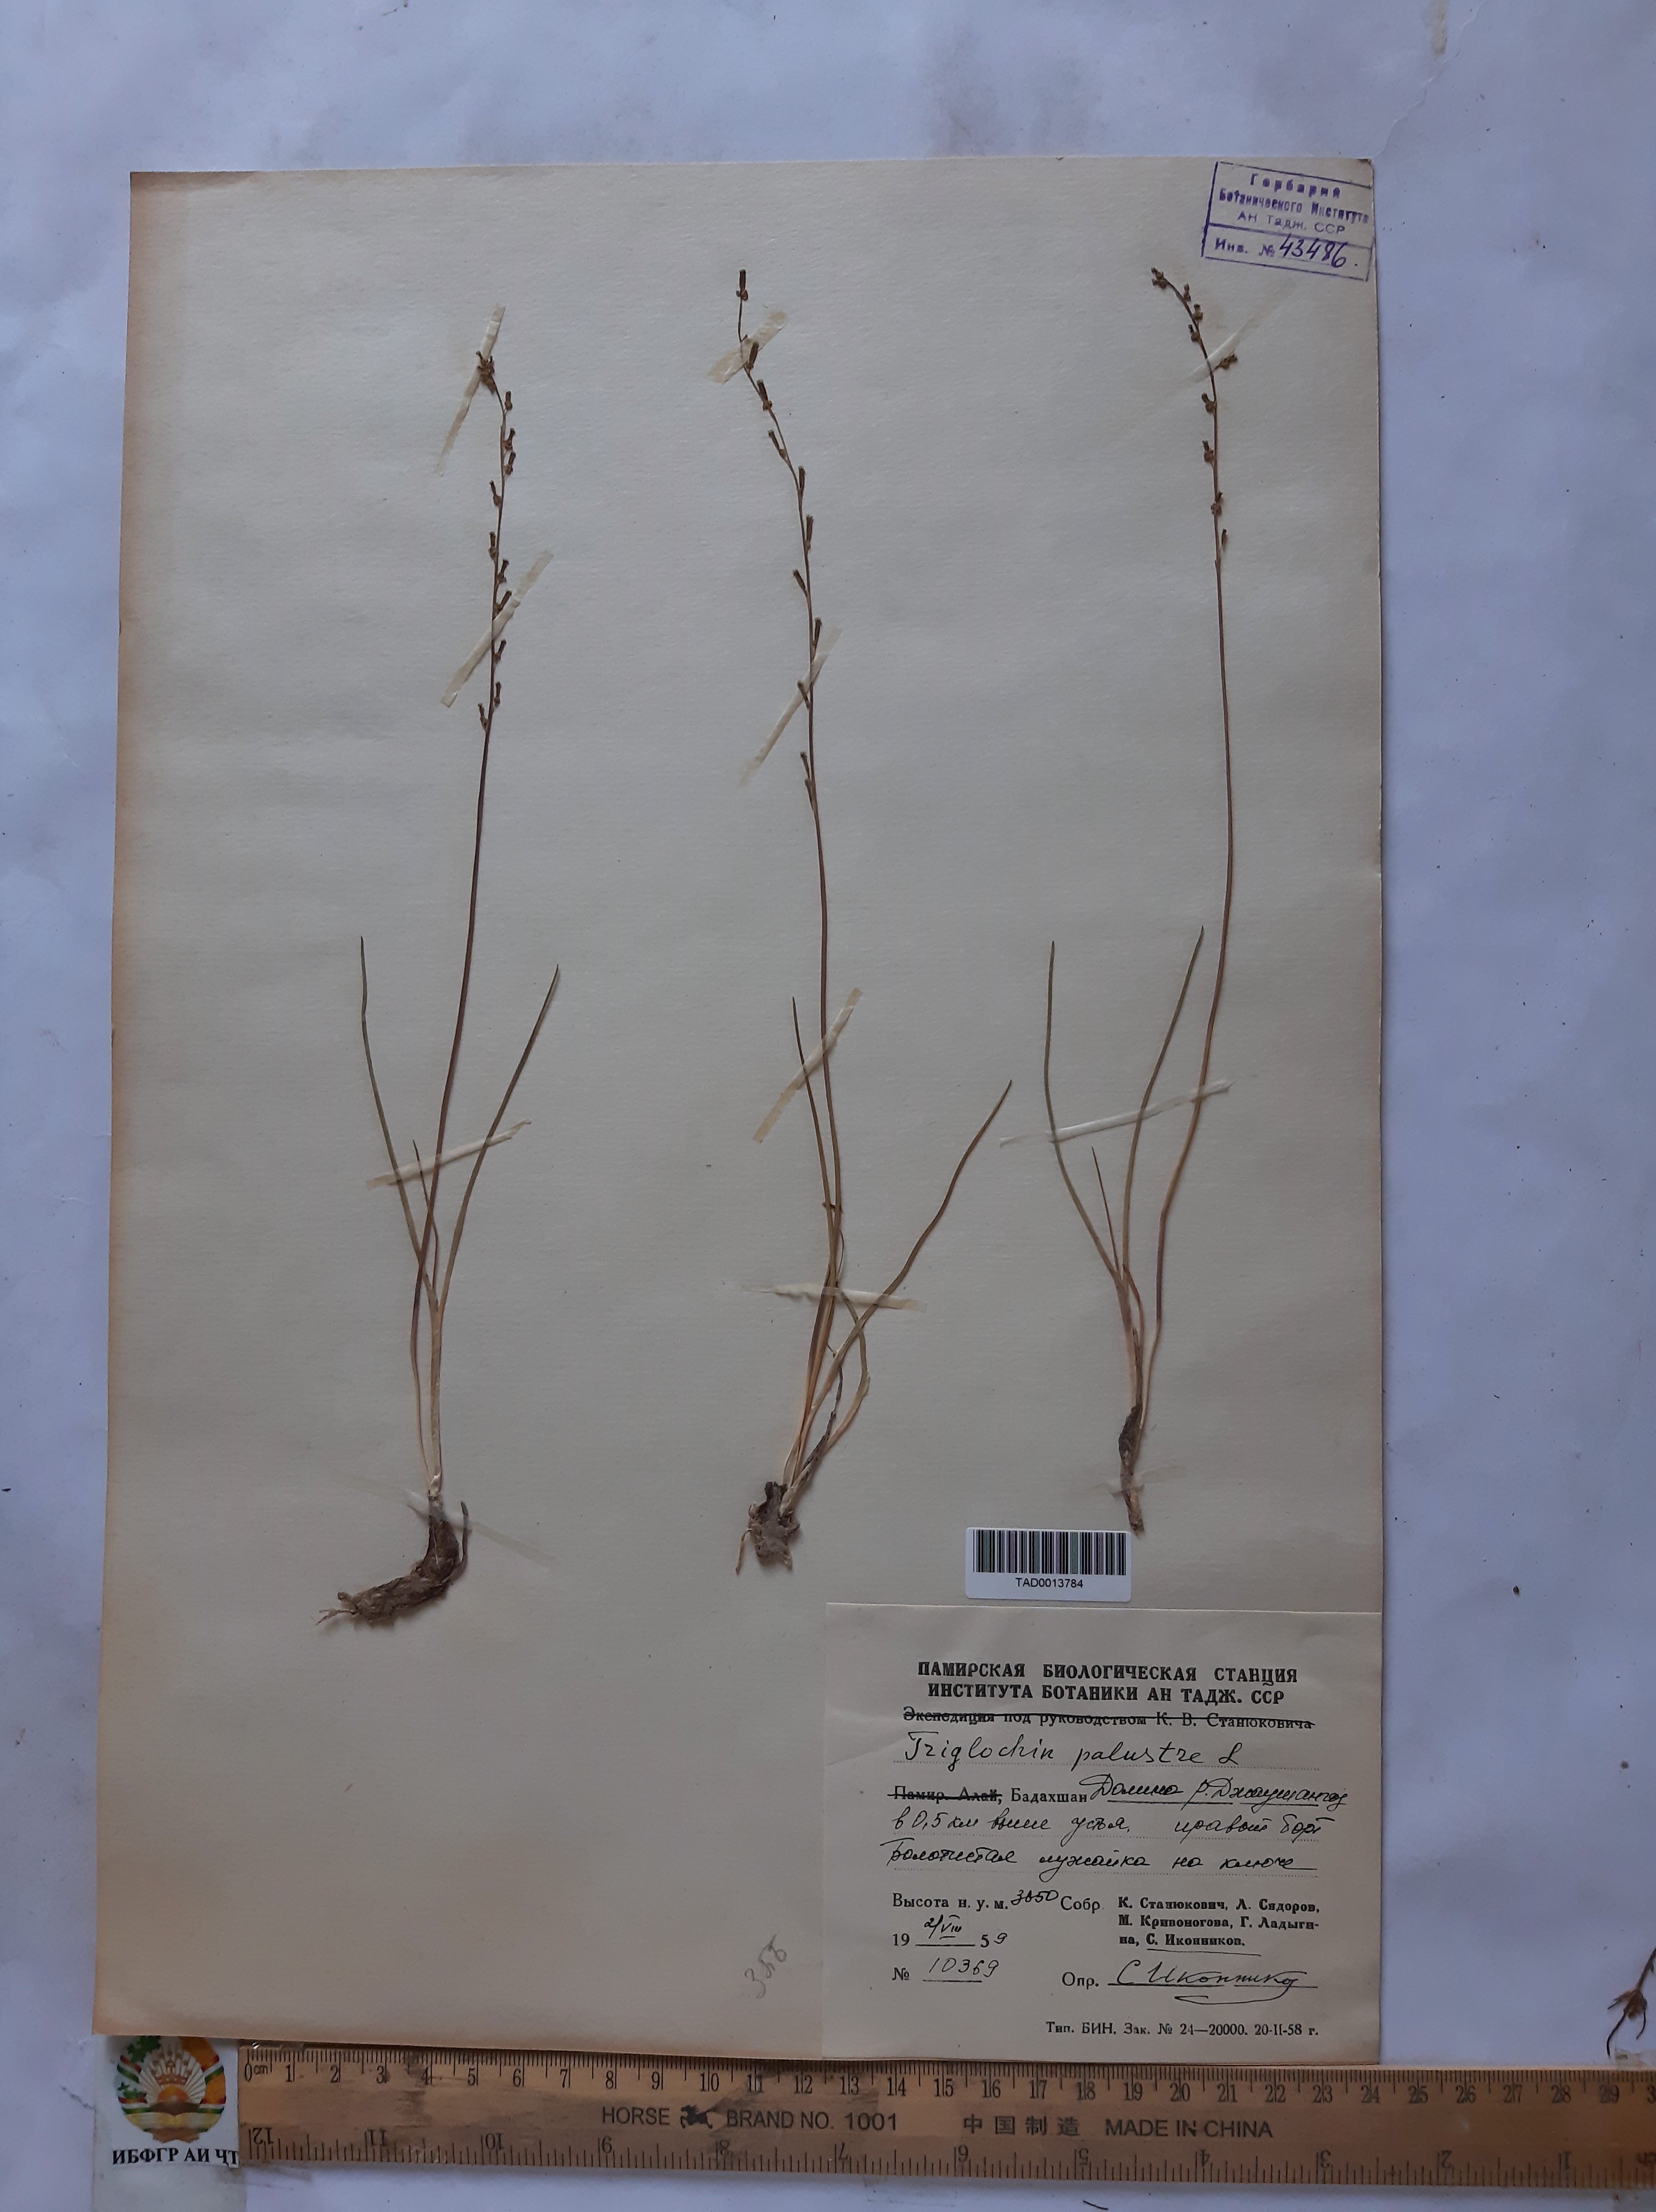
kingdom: Plantae
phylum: Tracheophyta
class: Liliopsida
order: Alismatales
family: Juncaginaceae
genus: Triglochin
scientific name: Triglochin palustris
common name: Marsh arrowgrass
